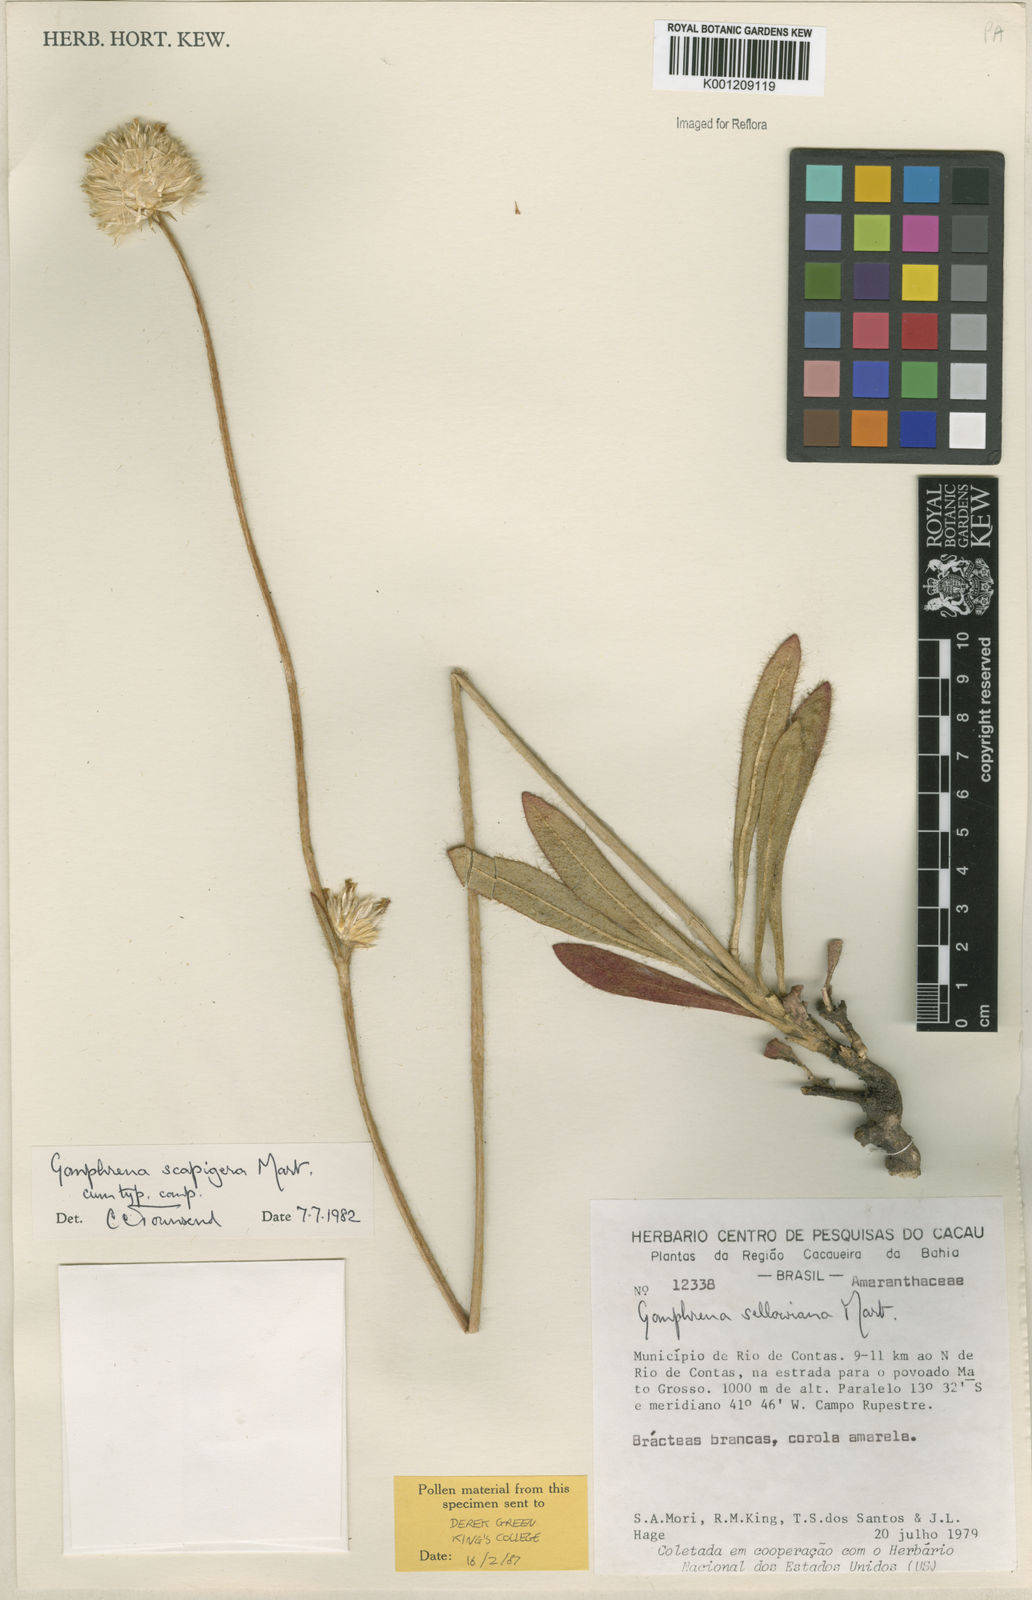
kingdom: Plantae
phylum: Tracheophyta
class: Magnoliopsida
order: Caryophyllales
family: Amaranthaceae
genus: Gomphrena
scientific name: Gomphrena scapigera
